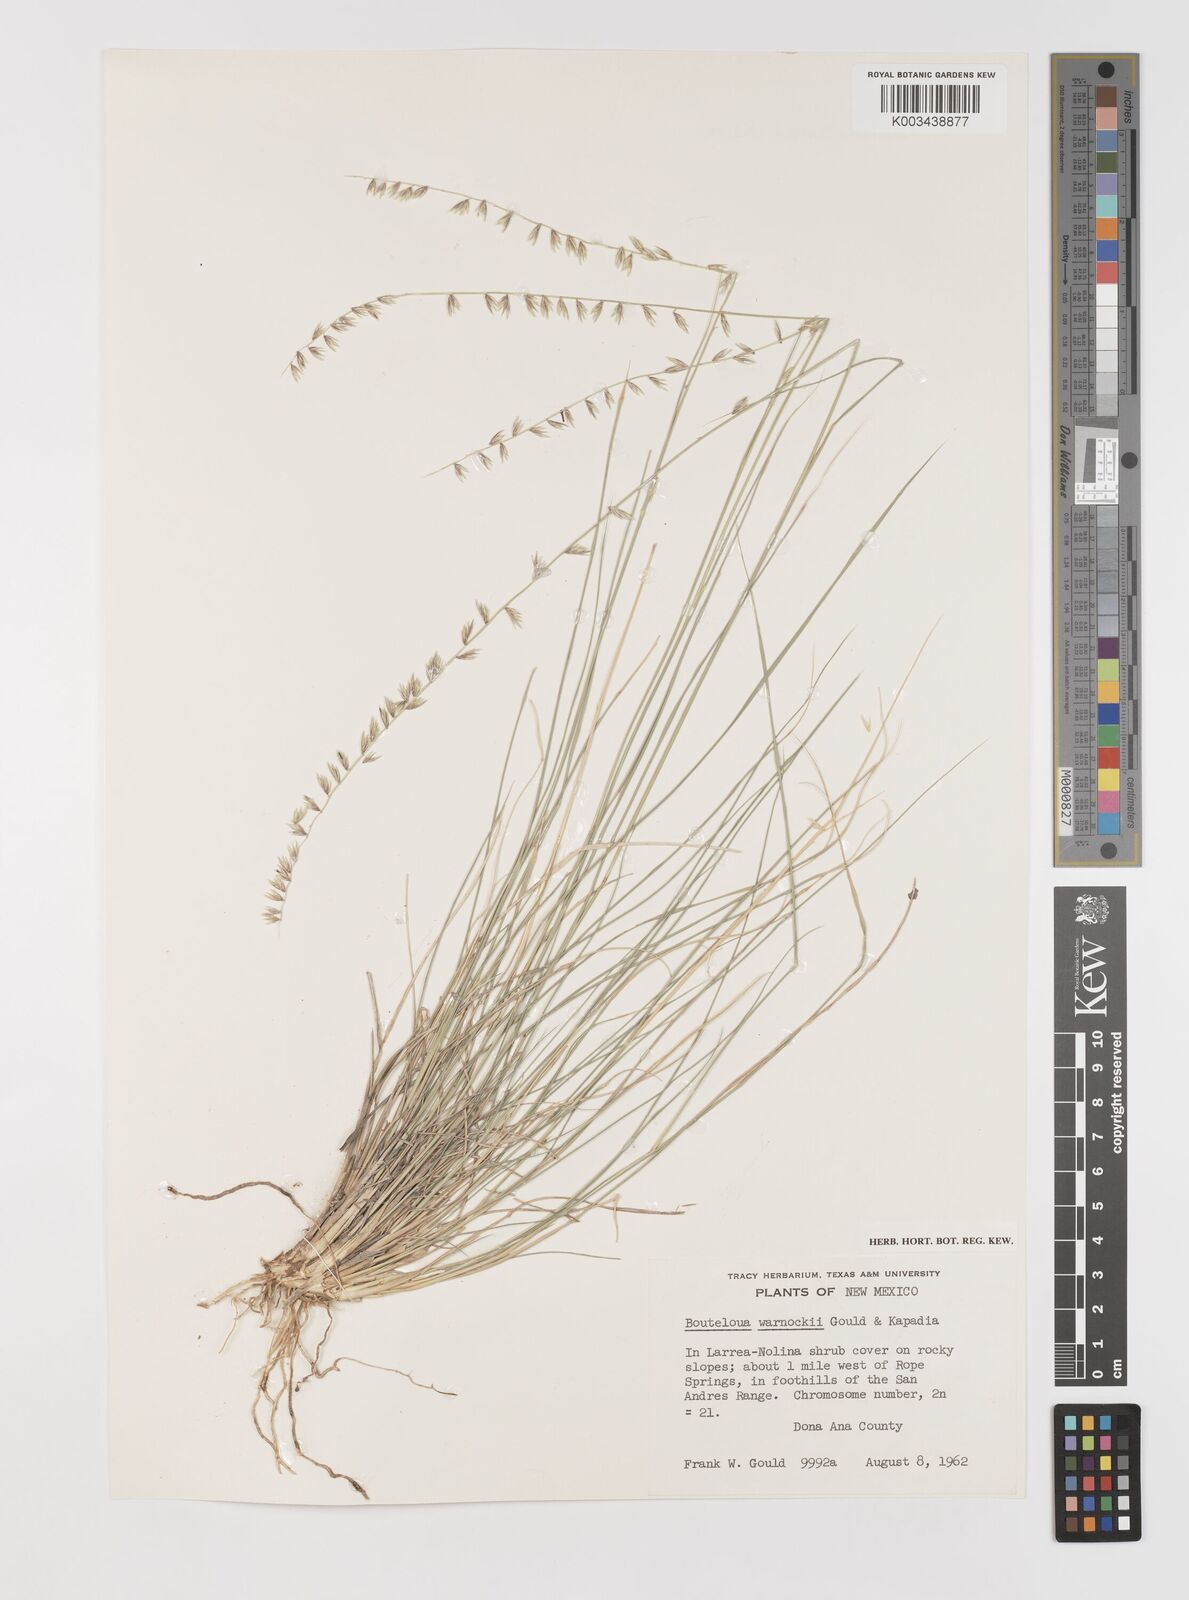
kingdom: Plantae
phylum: Tracheophyta
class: Liliopsida
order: Poales
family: Poaceae
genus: Bouteloua
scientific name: Bouteloua warnockii
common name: Warnock's grama
